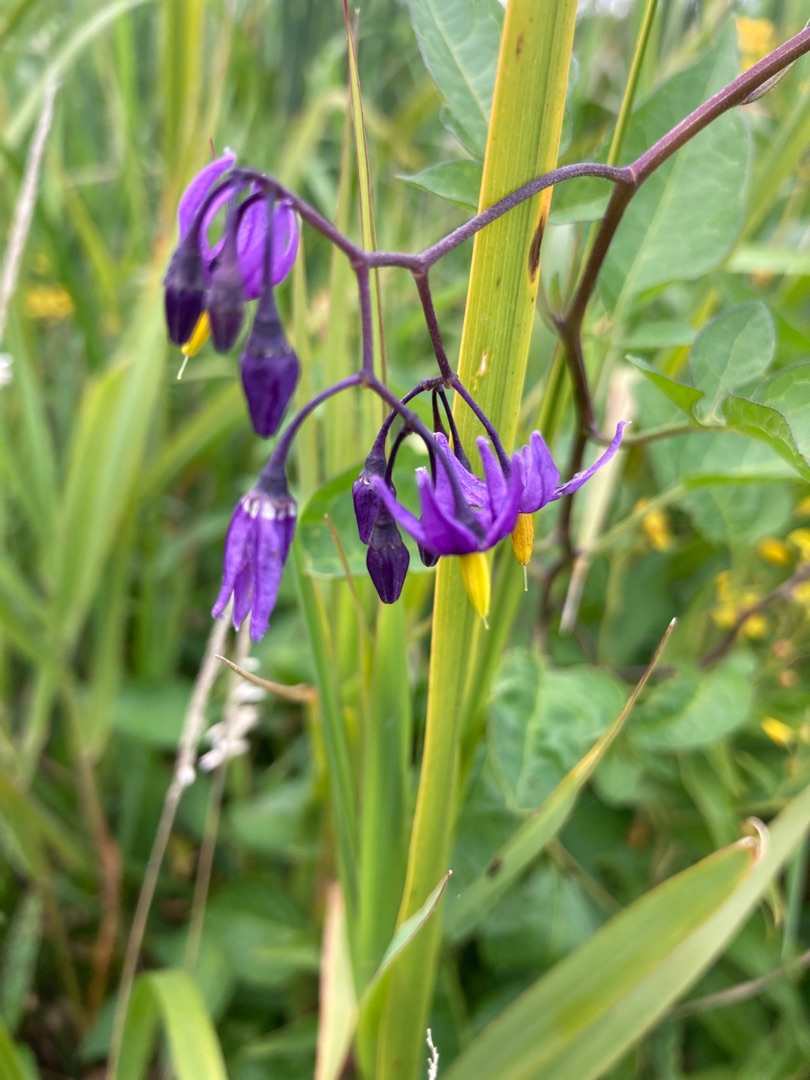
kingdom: Plantae
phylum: Tracheophyta
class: Magnoliopsida
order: Solanales
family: Solanaceae
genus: Solanum
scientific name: Solanum dulcamara
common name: Bittersød natskygge
